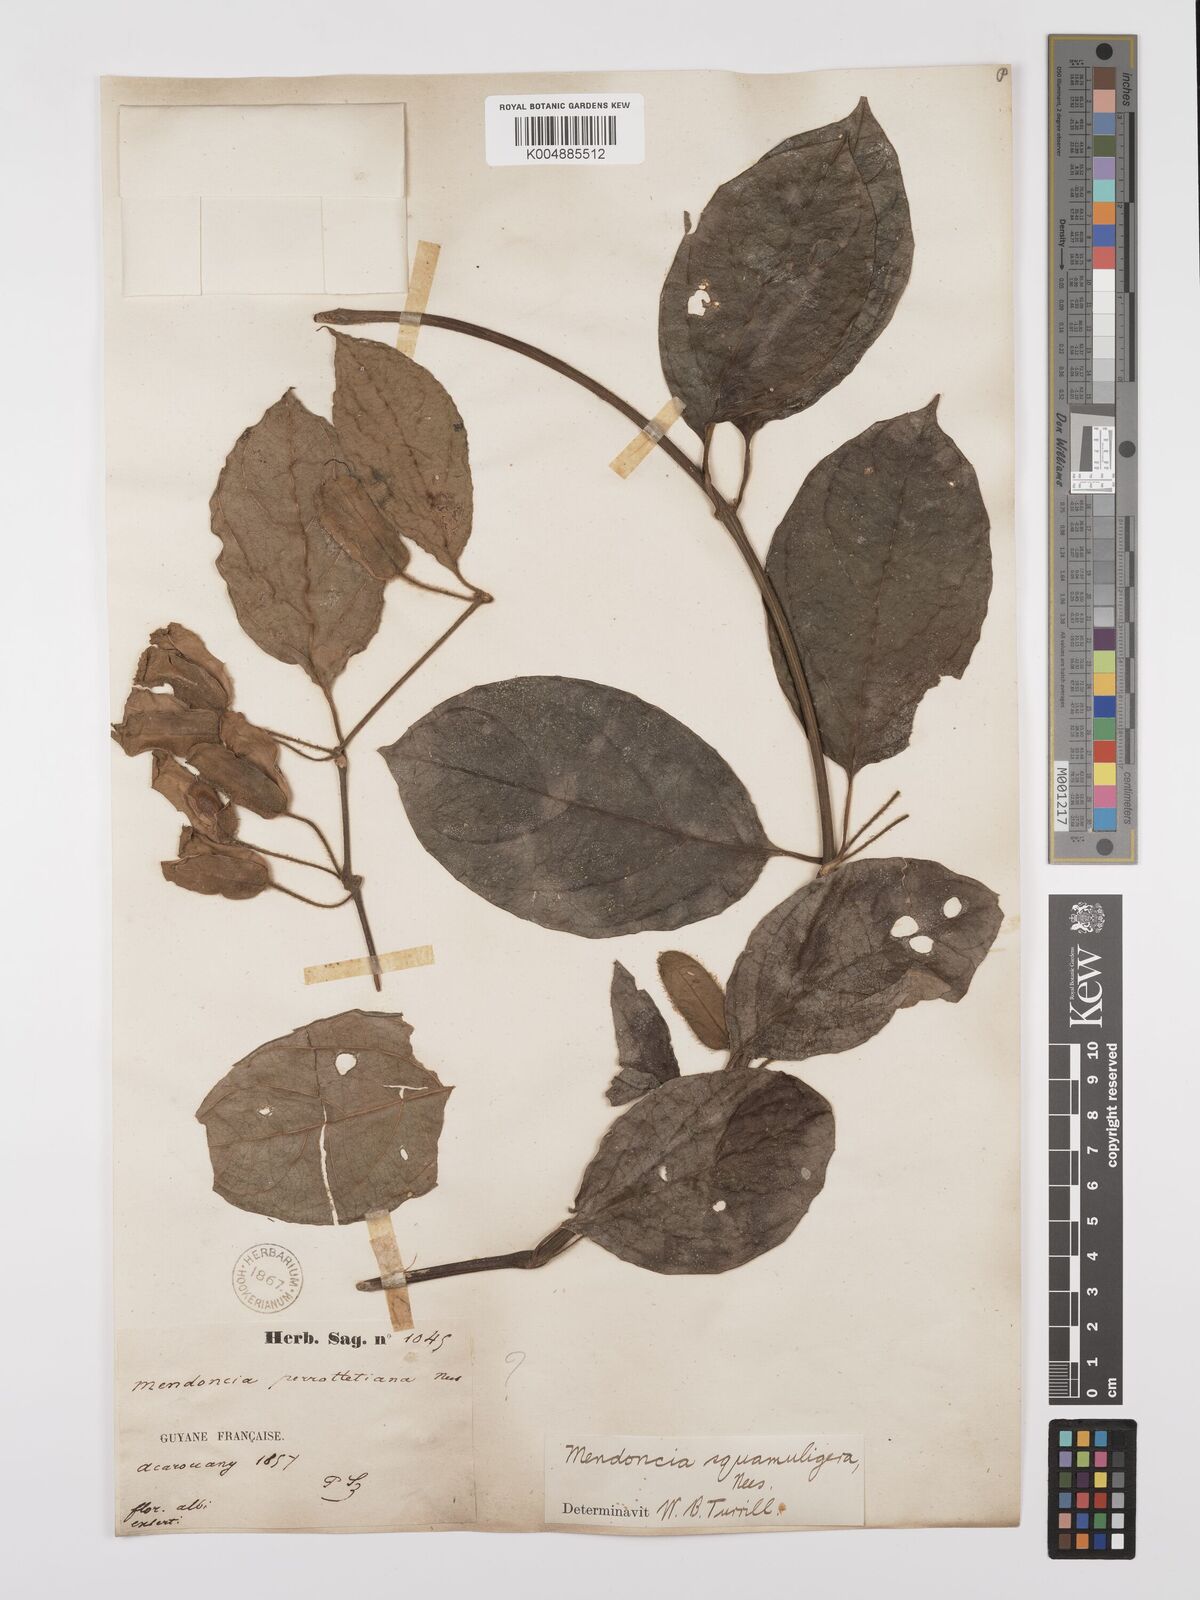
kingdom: Plantae
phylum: Tracheophyta
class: Magnoliopsida
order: Lamiales
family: Acanthaceae
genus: Mendoncia
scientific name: Mendoncia squamuligera
